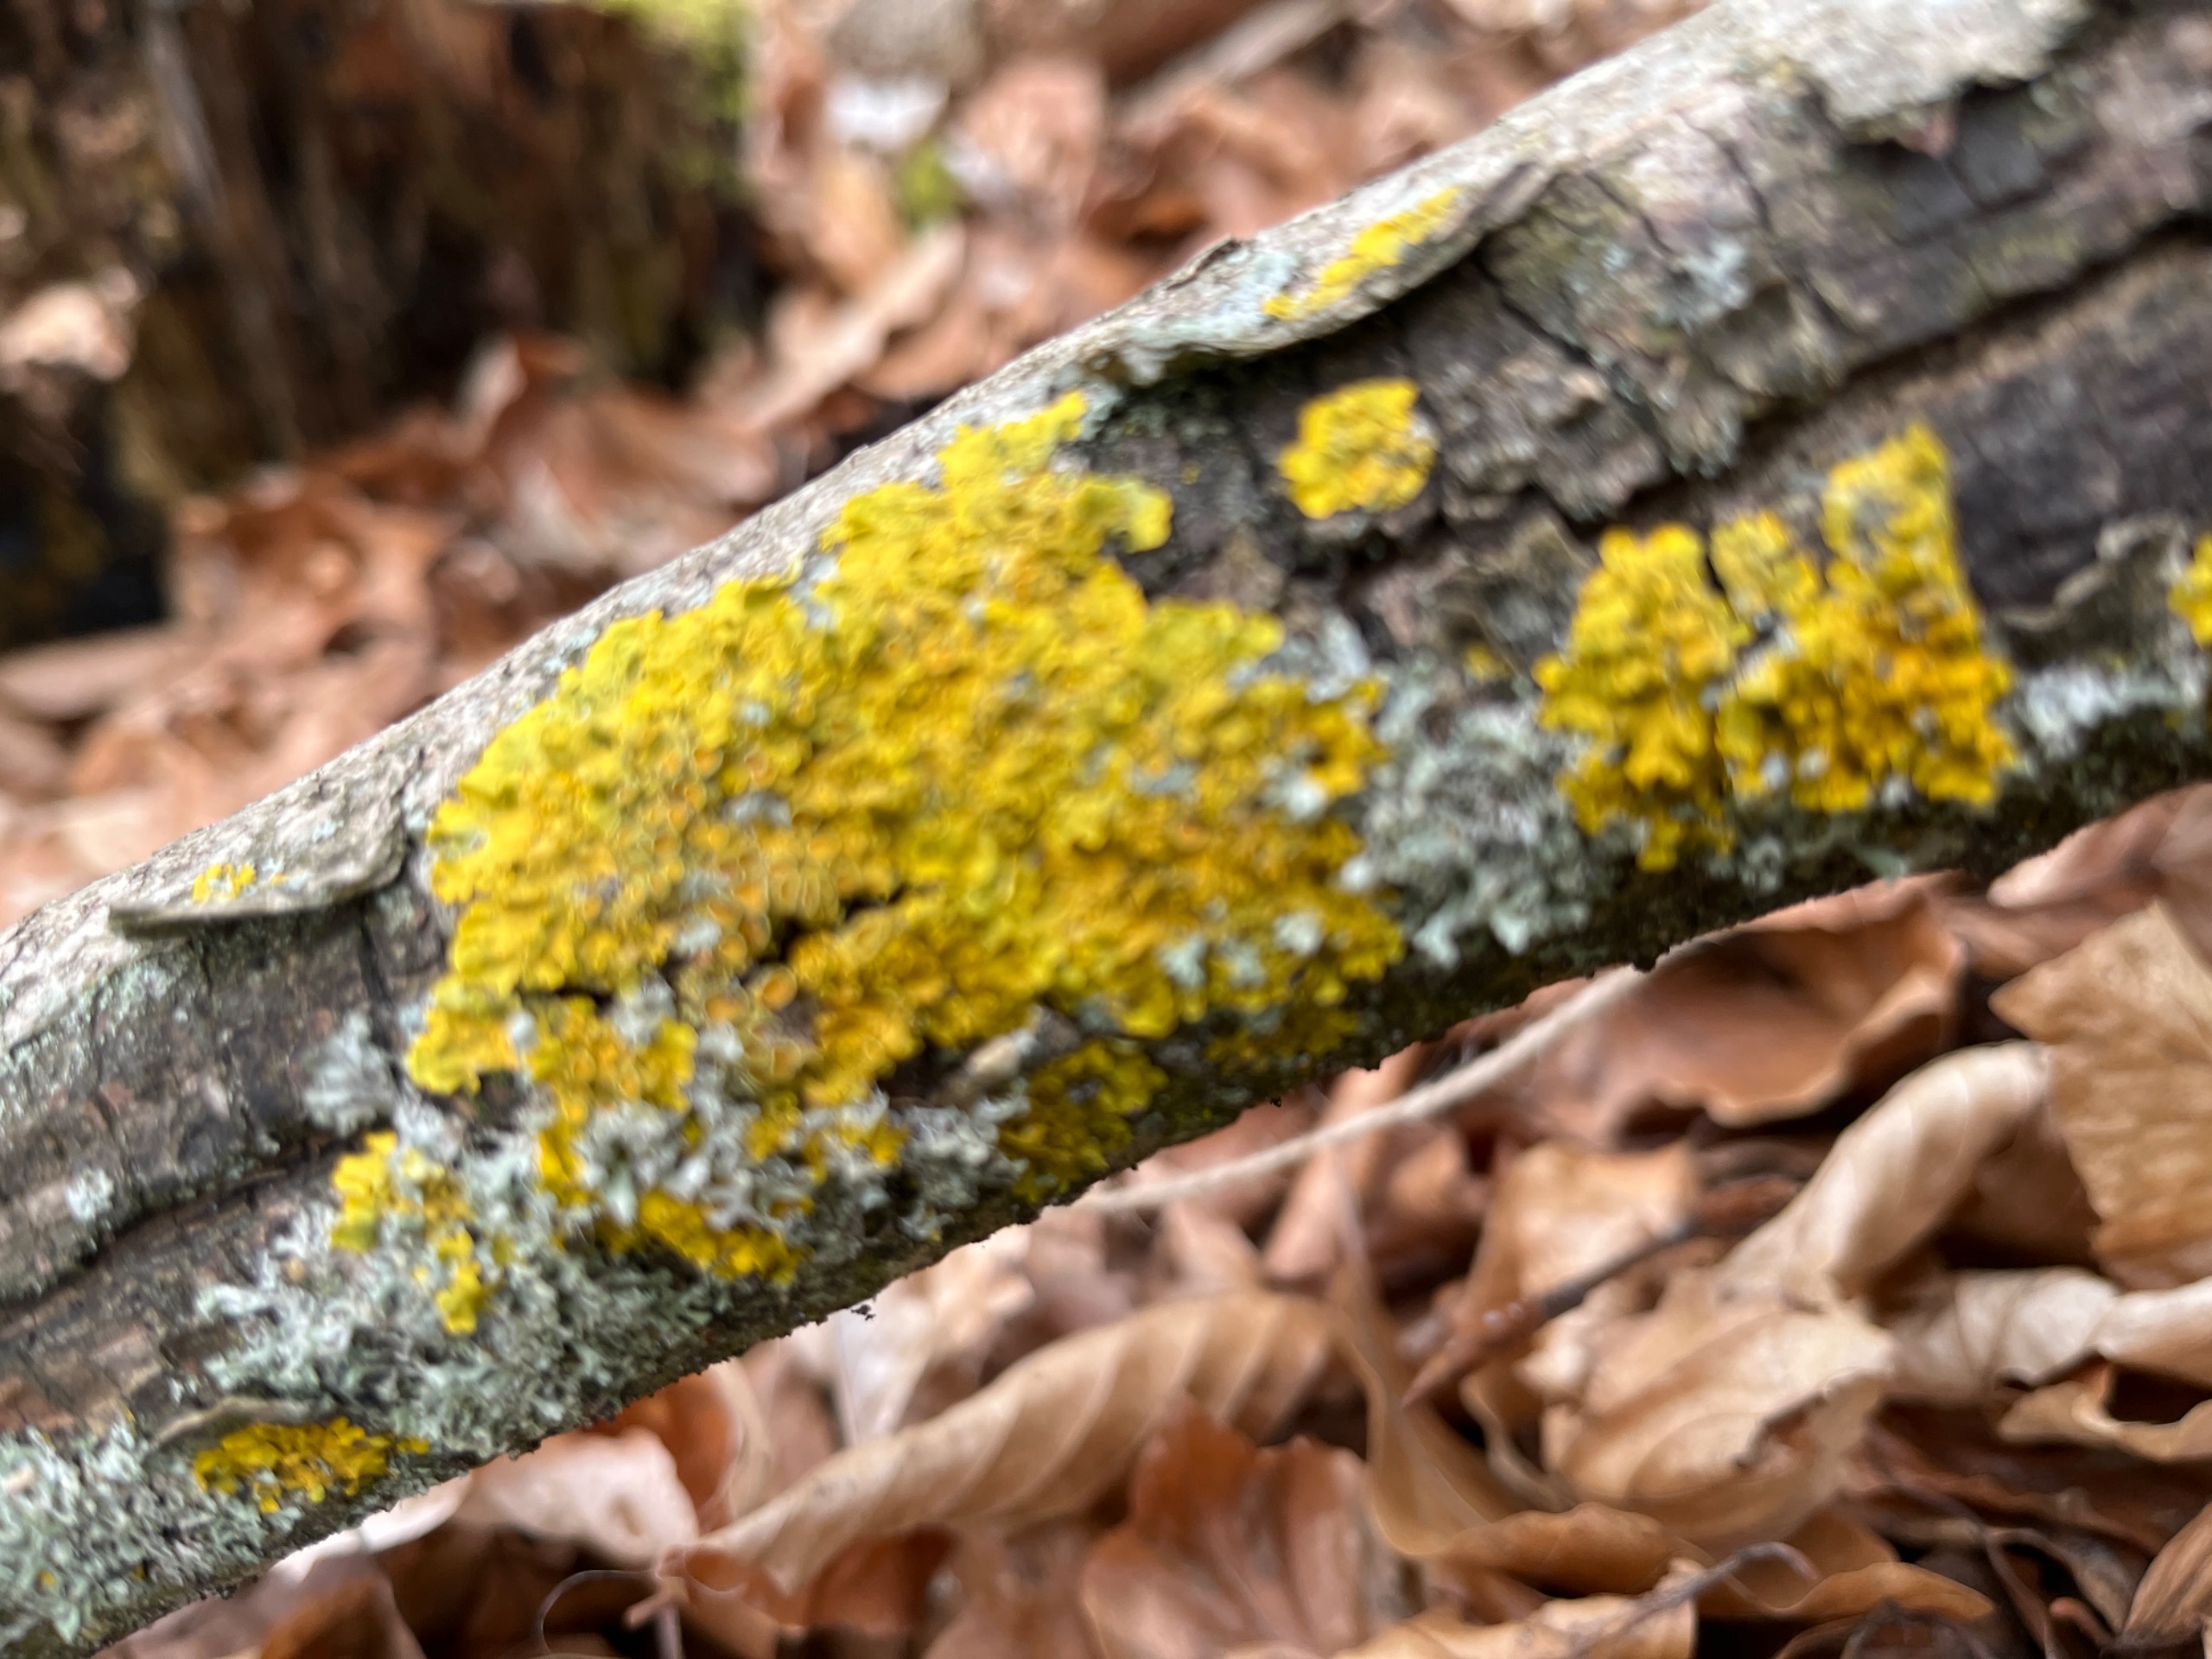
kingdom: Fungi
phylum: Ascomycota
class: Lecanoromycetes
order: Teloschistales
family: Teloschistaceae
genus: Xanthoria
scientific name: Xanthoria parietina
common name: Almindelig væggelav
